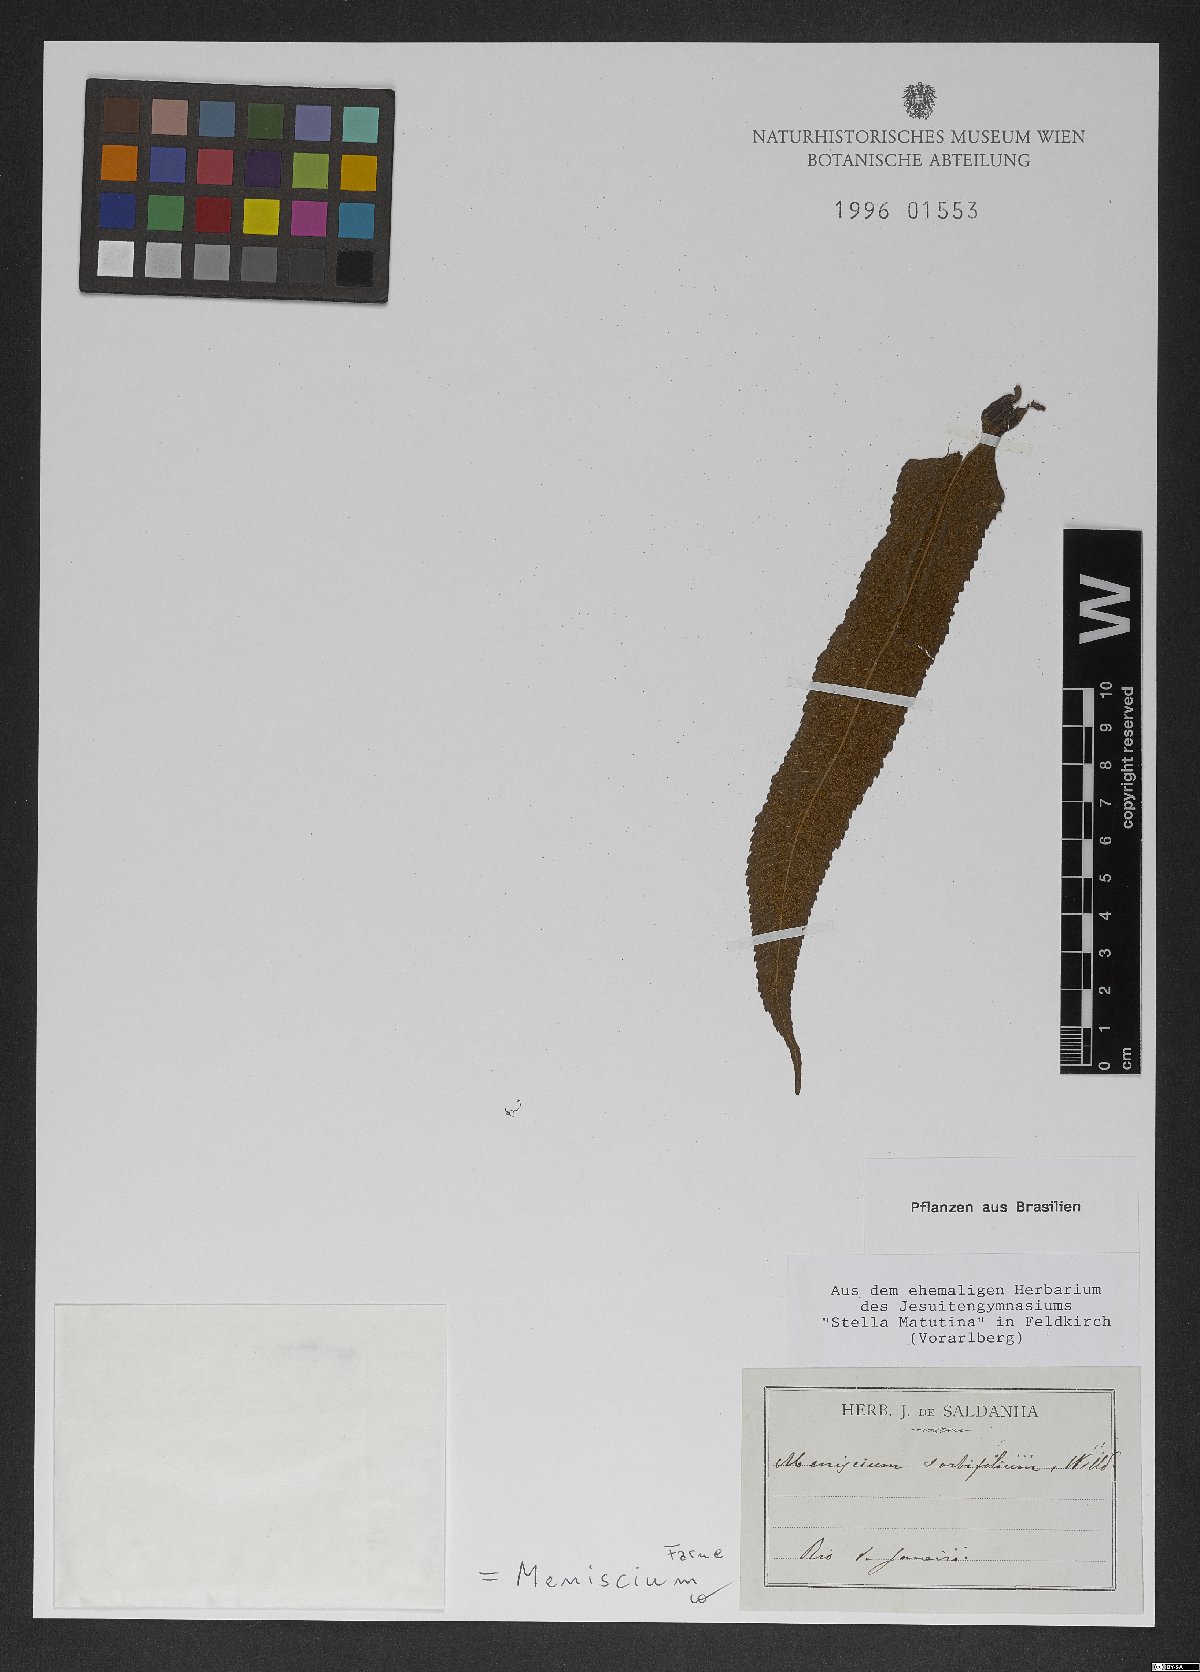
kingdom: Plantae
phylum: Tracheophyta
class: Polypodiopsida
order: Polypodiales
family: Thelypteridaceae
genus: Meniscium
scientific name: Meniscium reticulatum
